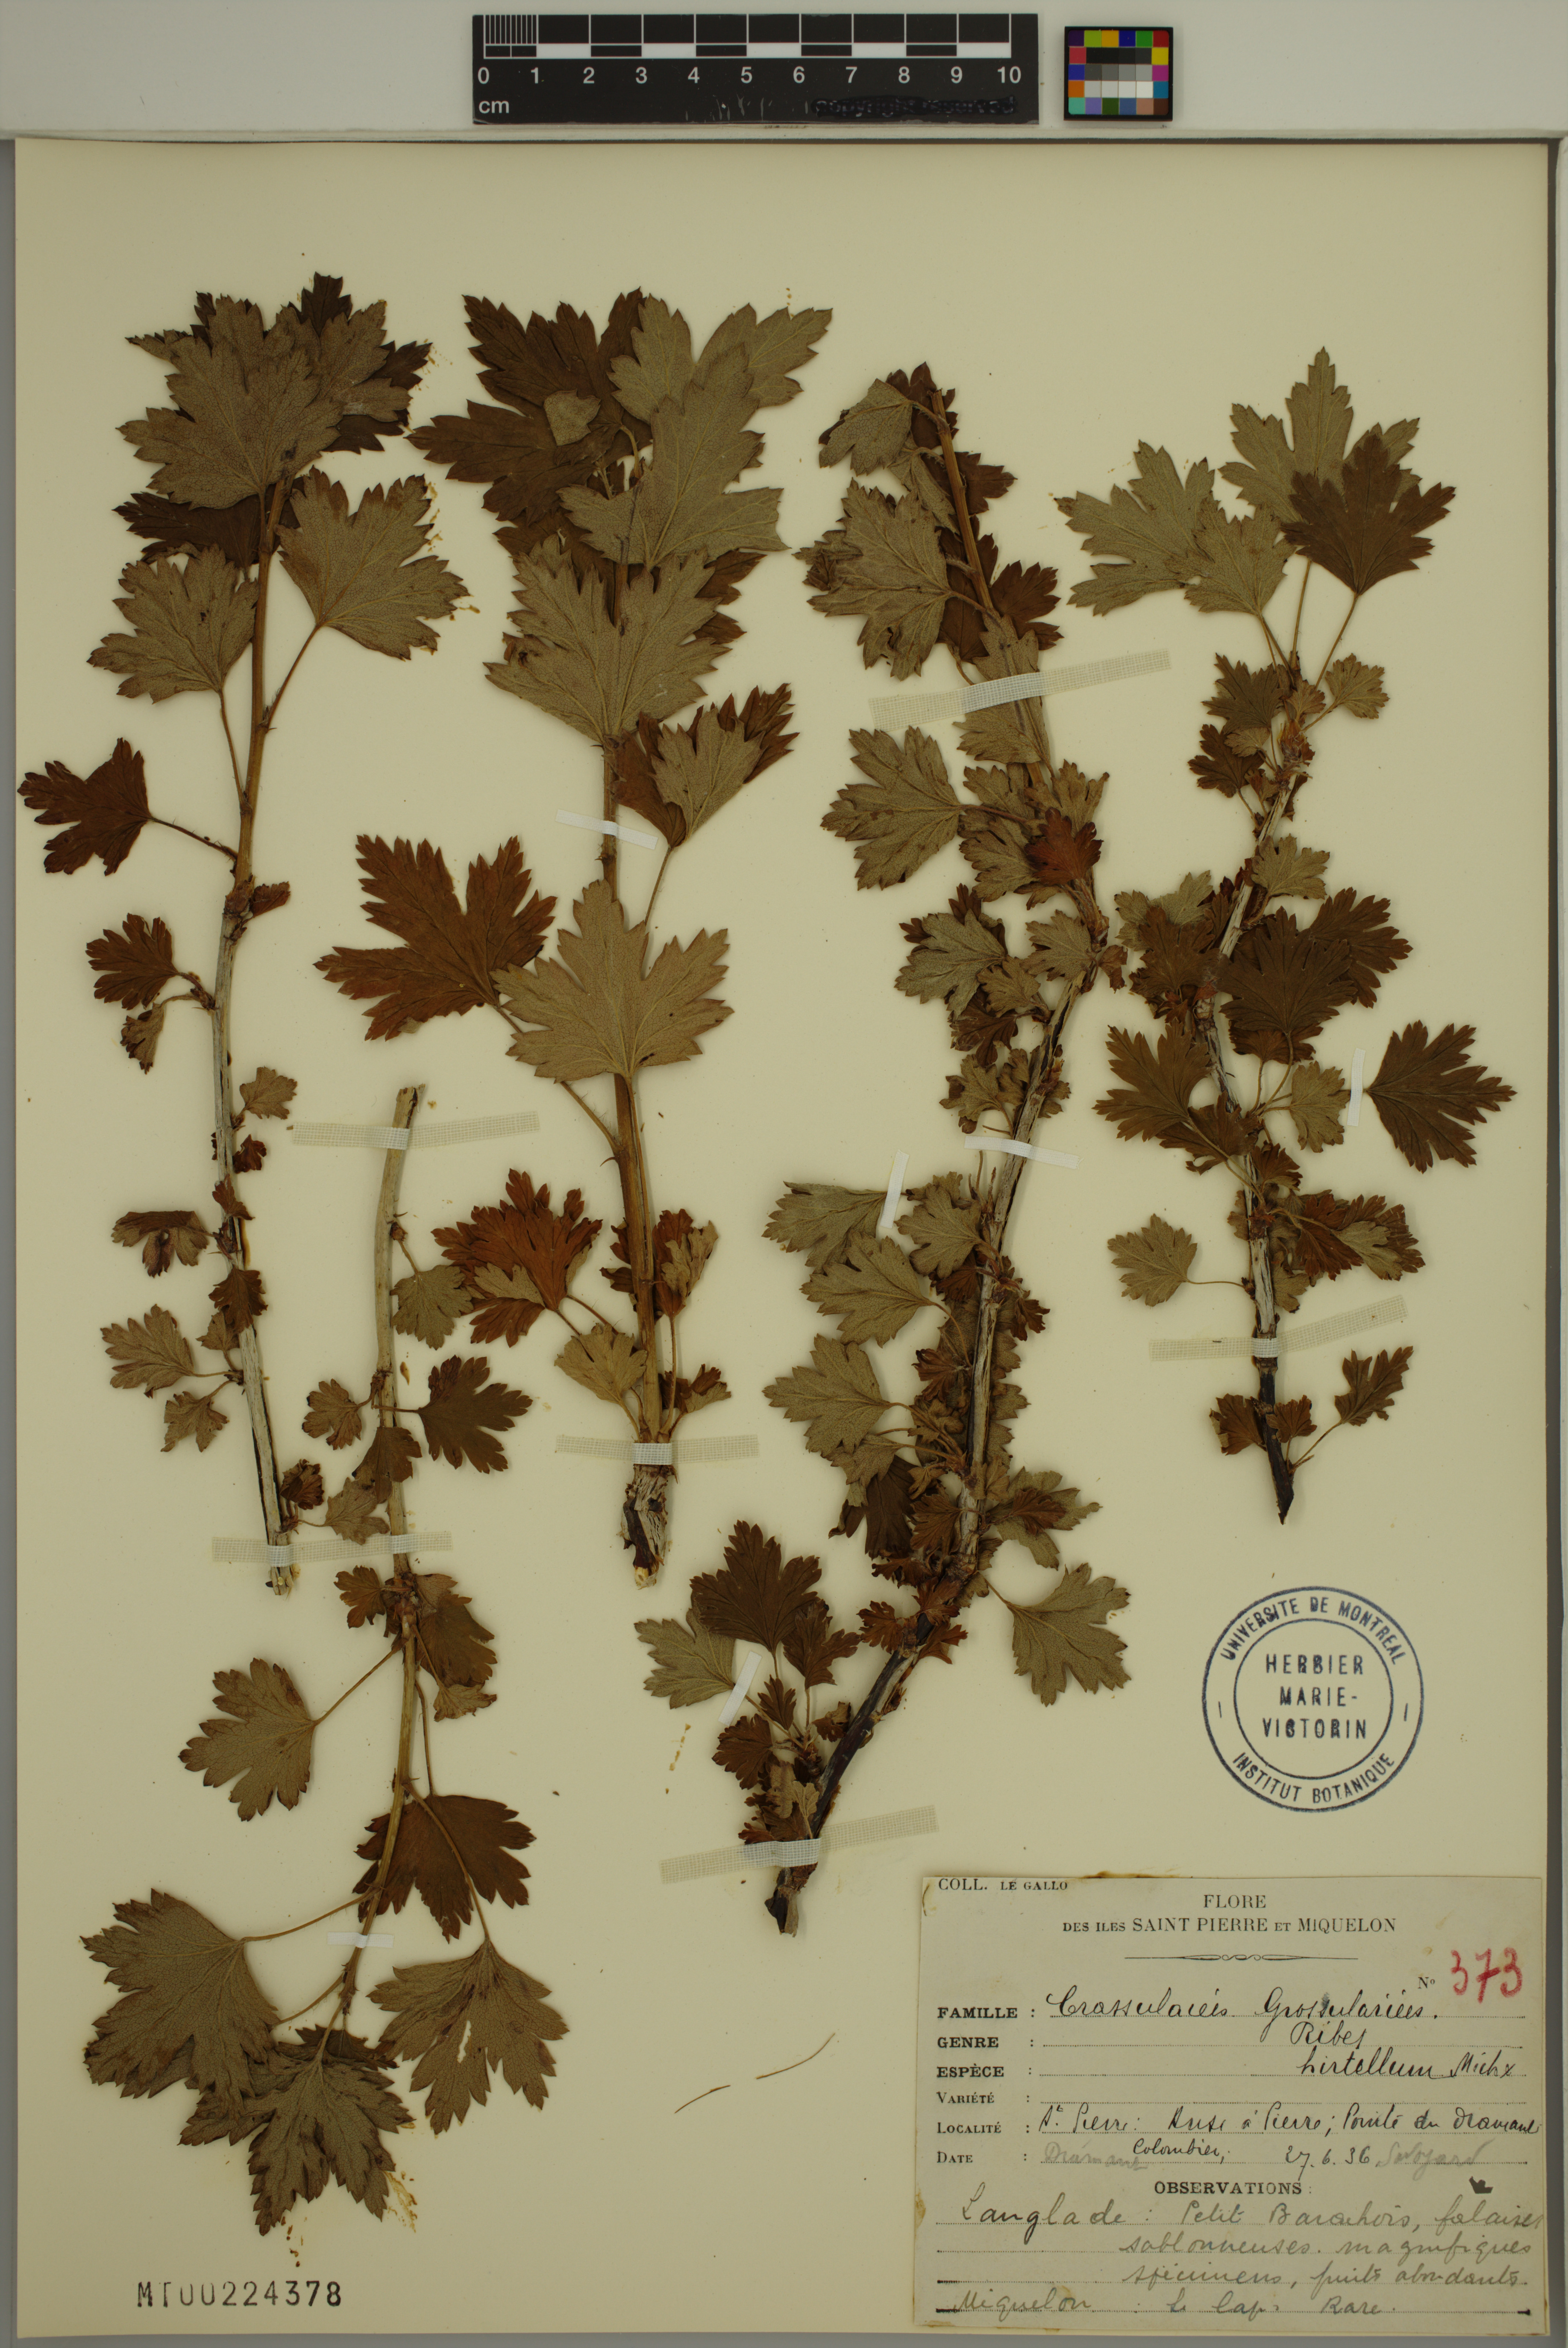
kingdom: Plantae
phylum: Tracheophyta
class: Magnoliopsida
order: Saxifragales
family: Grossulariaceae
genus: Ribes
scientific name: Ribes hirtellum
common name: Hairy gooseberry
